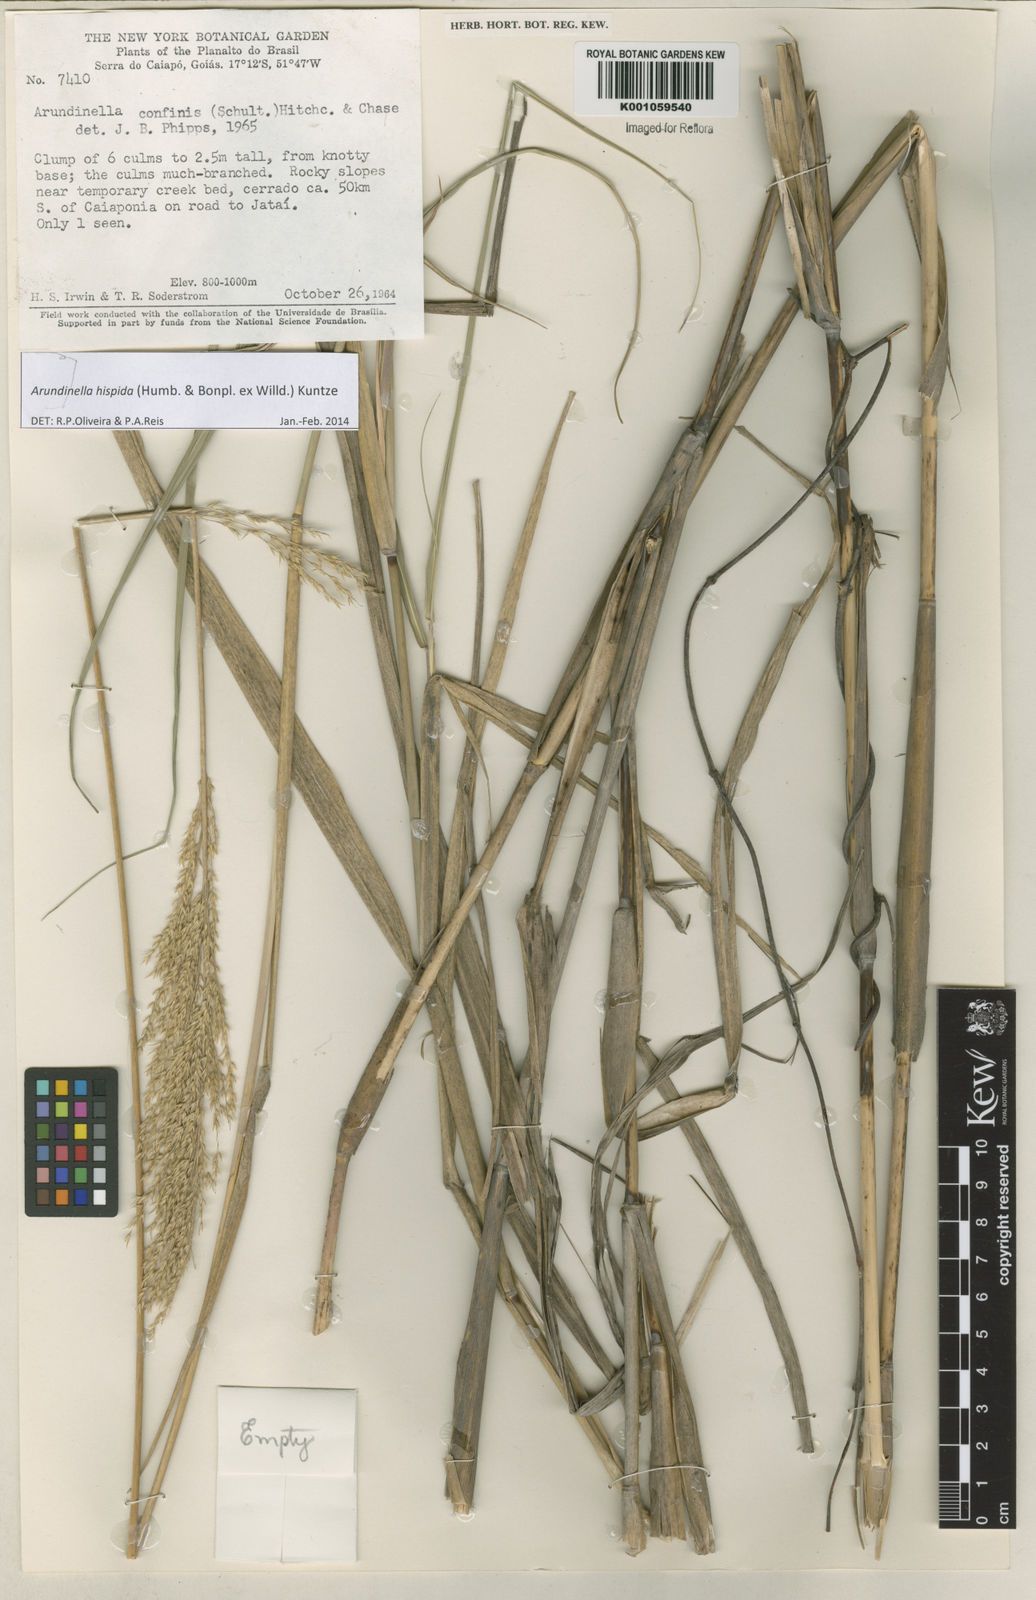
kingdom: Plantae
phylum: Tracheophyta
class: Liliopsida
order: Poales
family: Poaceae
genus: Arundinella
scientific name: Arundinella hispida
